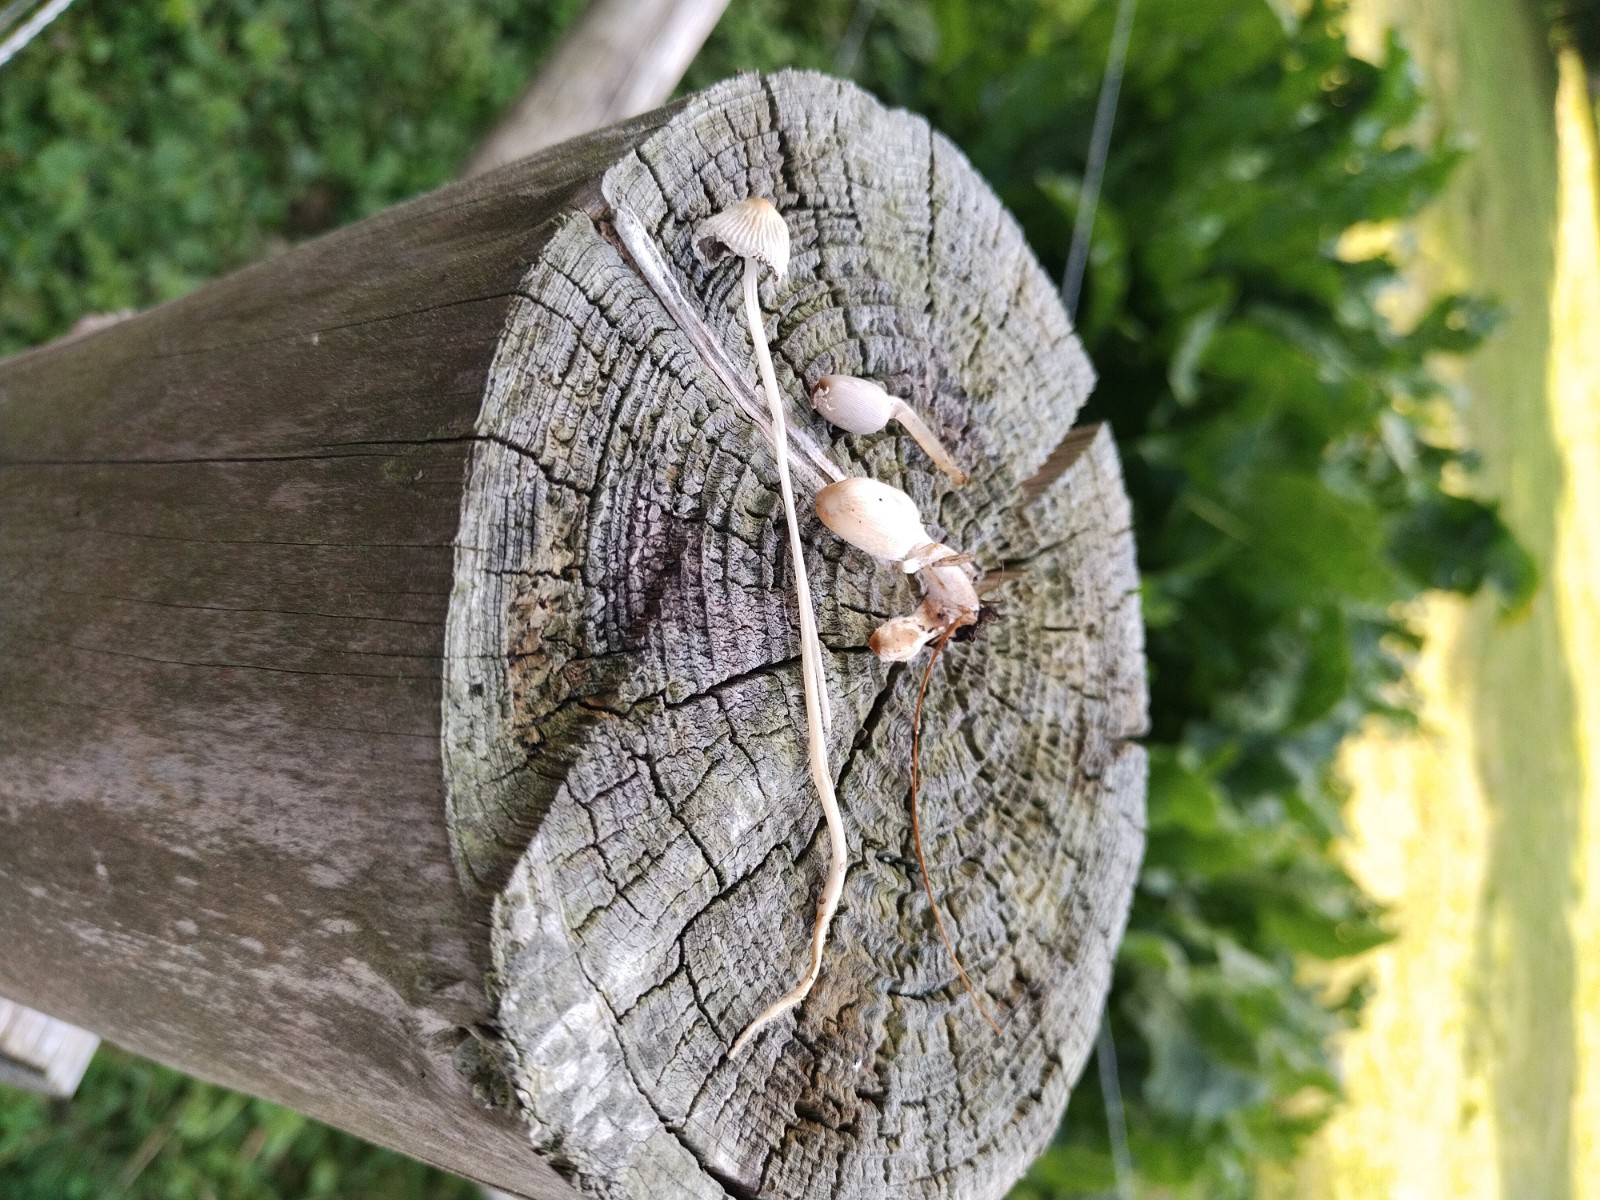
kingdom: Fungi
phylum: Basidiomycota
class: Agaricomycetes
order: Agaricales
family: Psathyrellaceae
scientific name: Psathyrellaceae
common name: mørkhatfamilien
